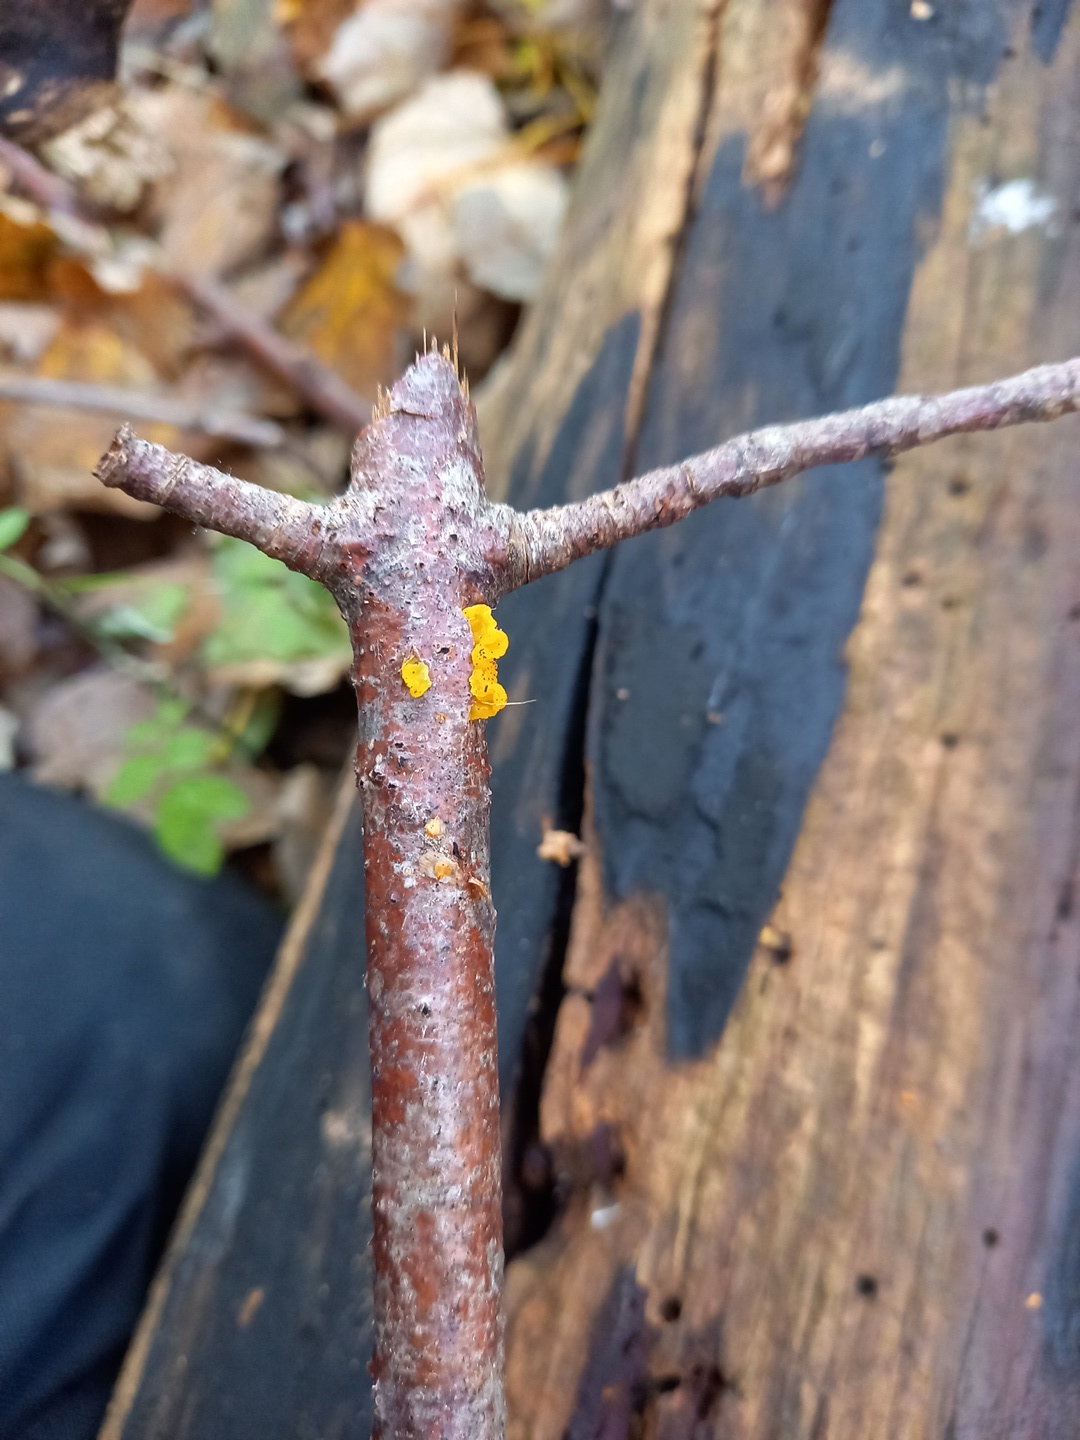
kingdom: Fungi
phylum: Basidiomycota
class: Tremellomycetes
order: Tremellales
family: Tremellaceae
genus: Tremella
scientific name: Tremella mesenterica
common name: gul bævresvamp
